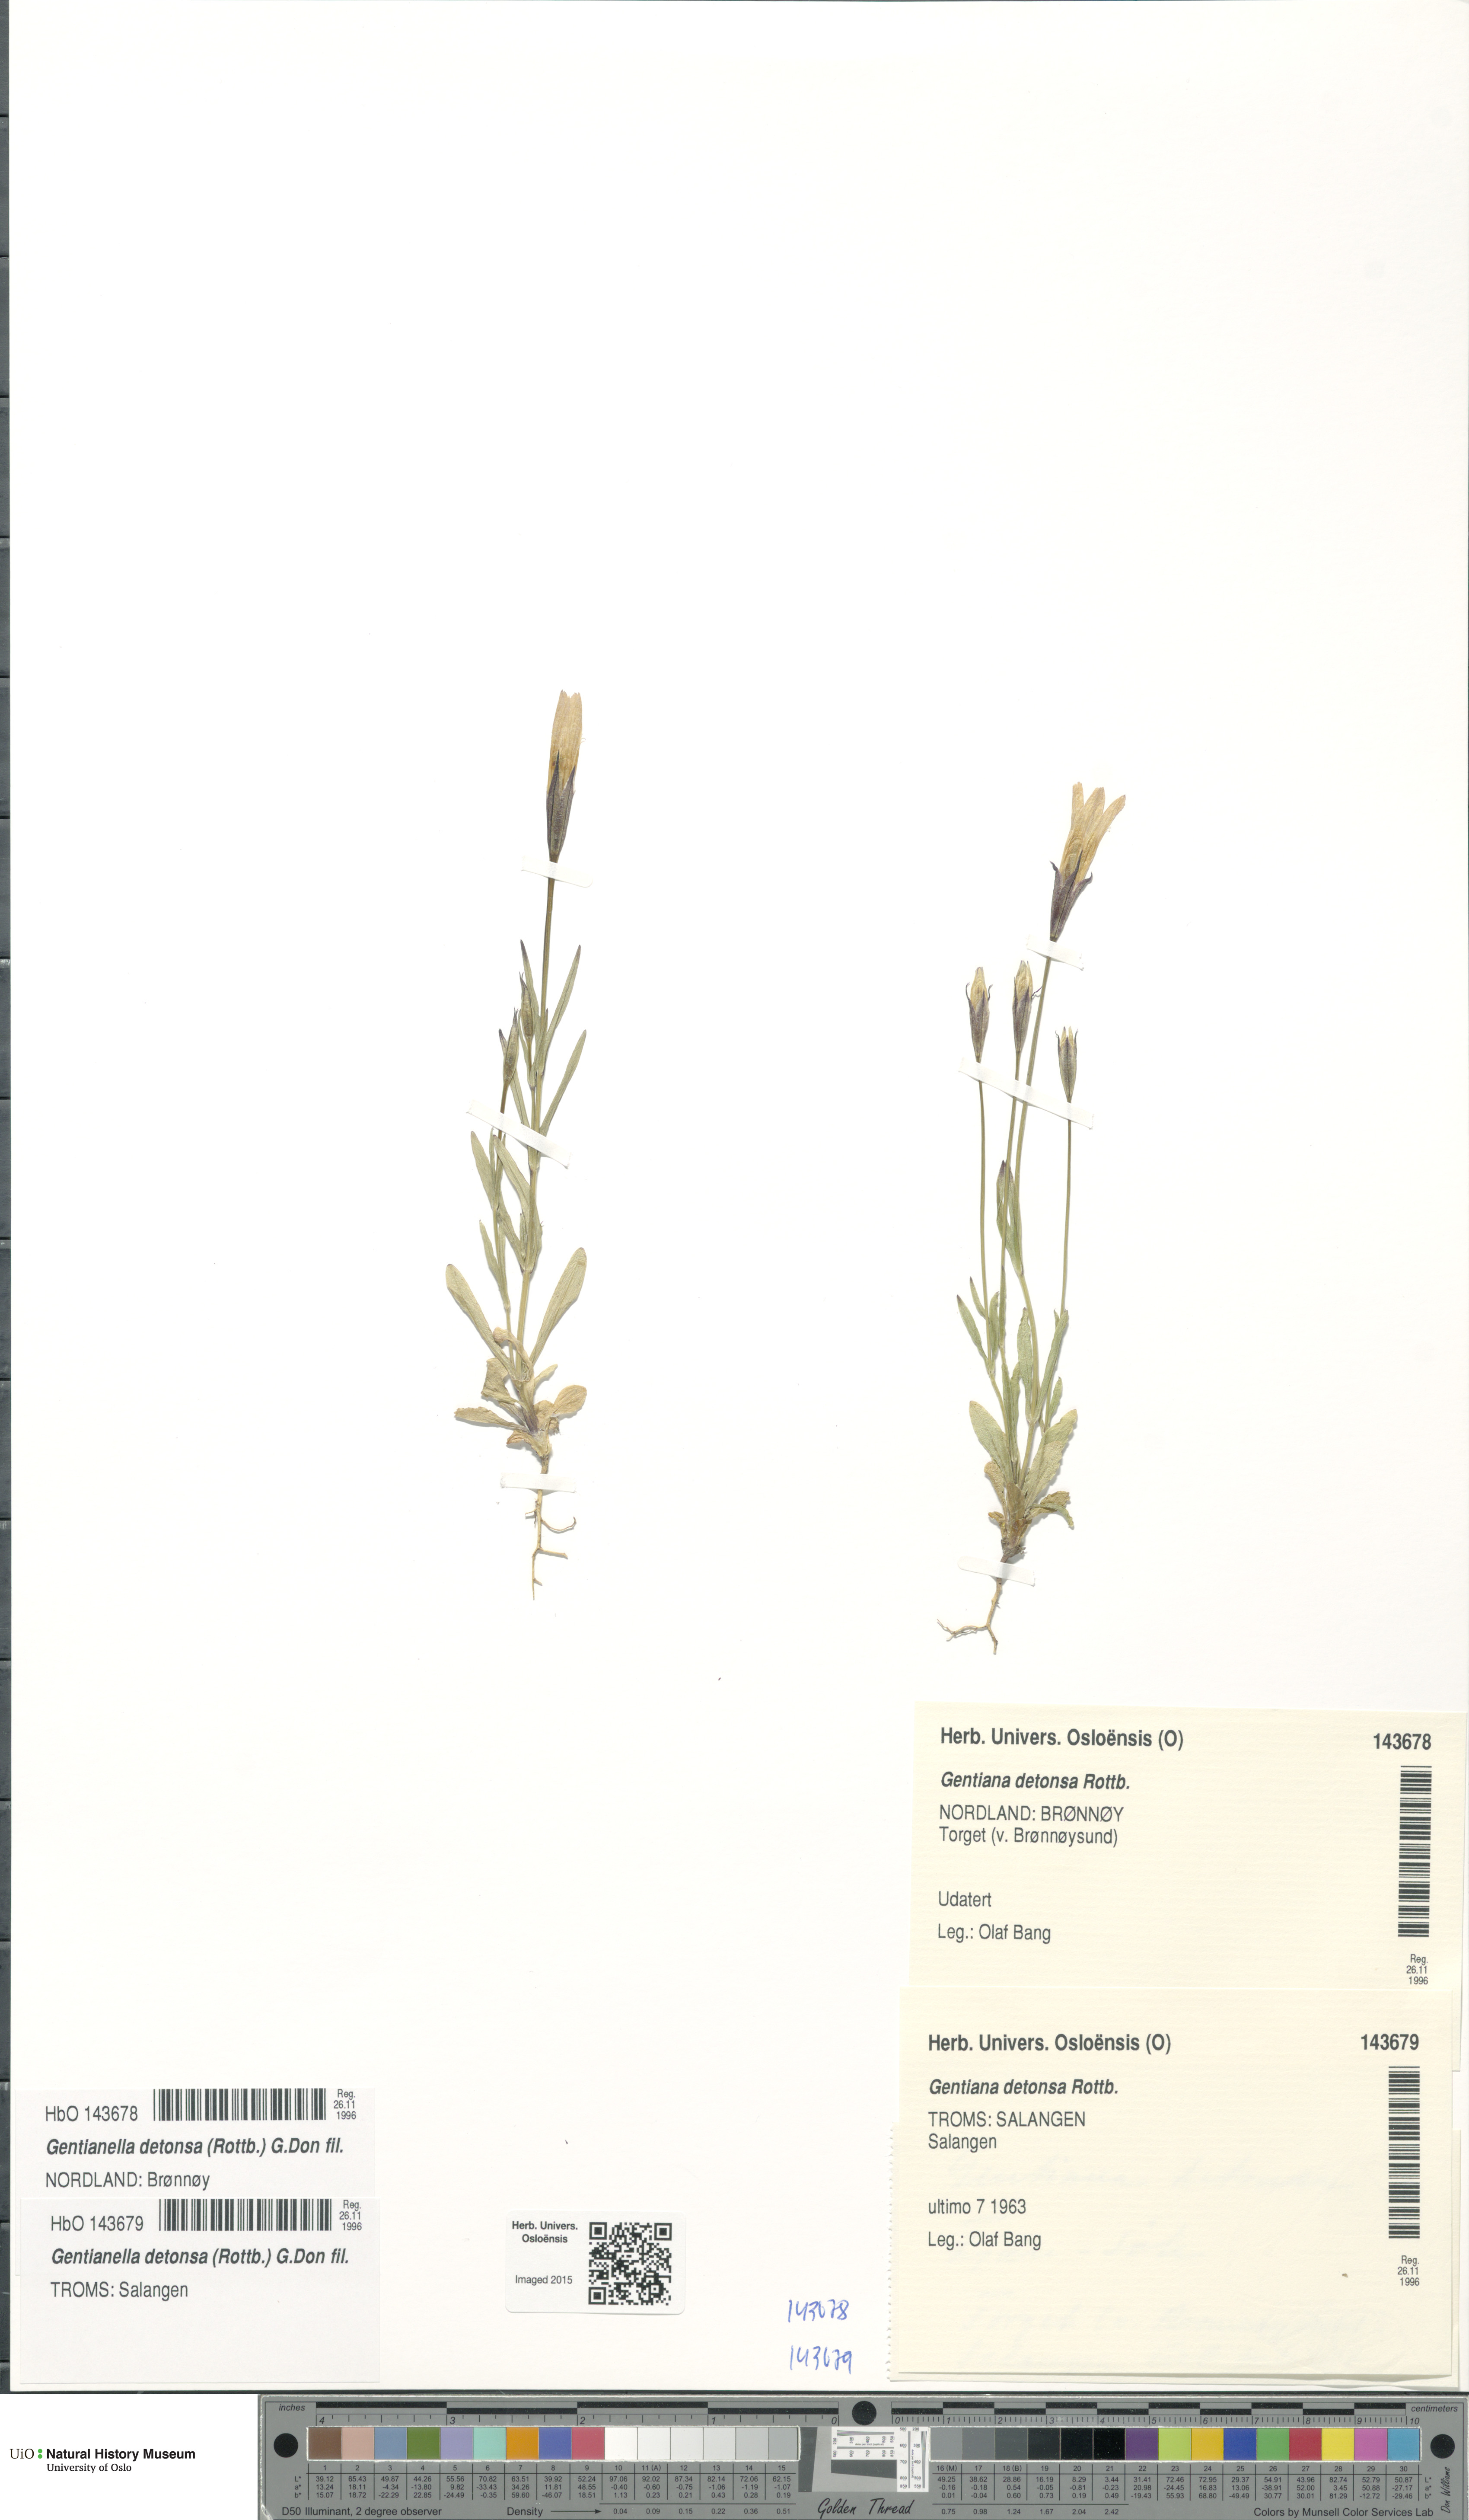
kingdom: Plantae
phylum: Tracheophyta
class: Magnoliopsida
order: Gentianales
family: Gentianaceae
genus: Gentianopsis
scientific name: Gentianopsis detonsa
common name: Fringed-gentian
